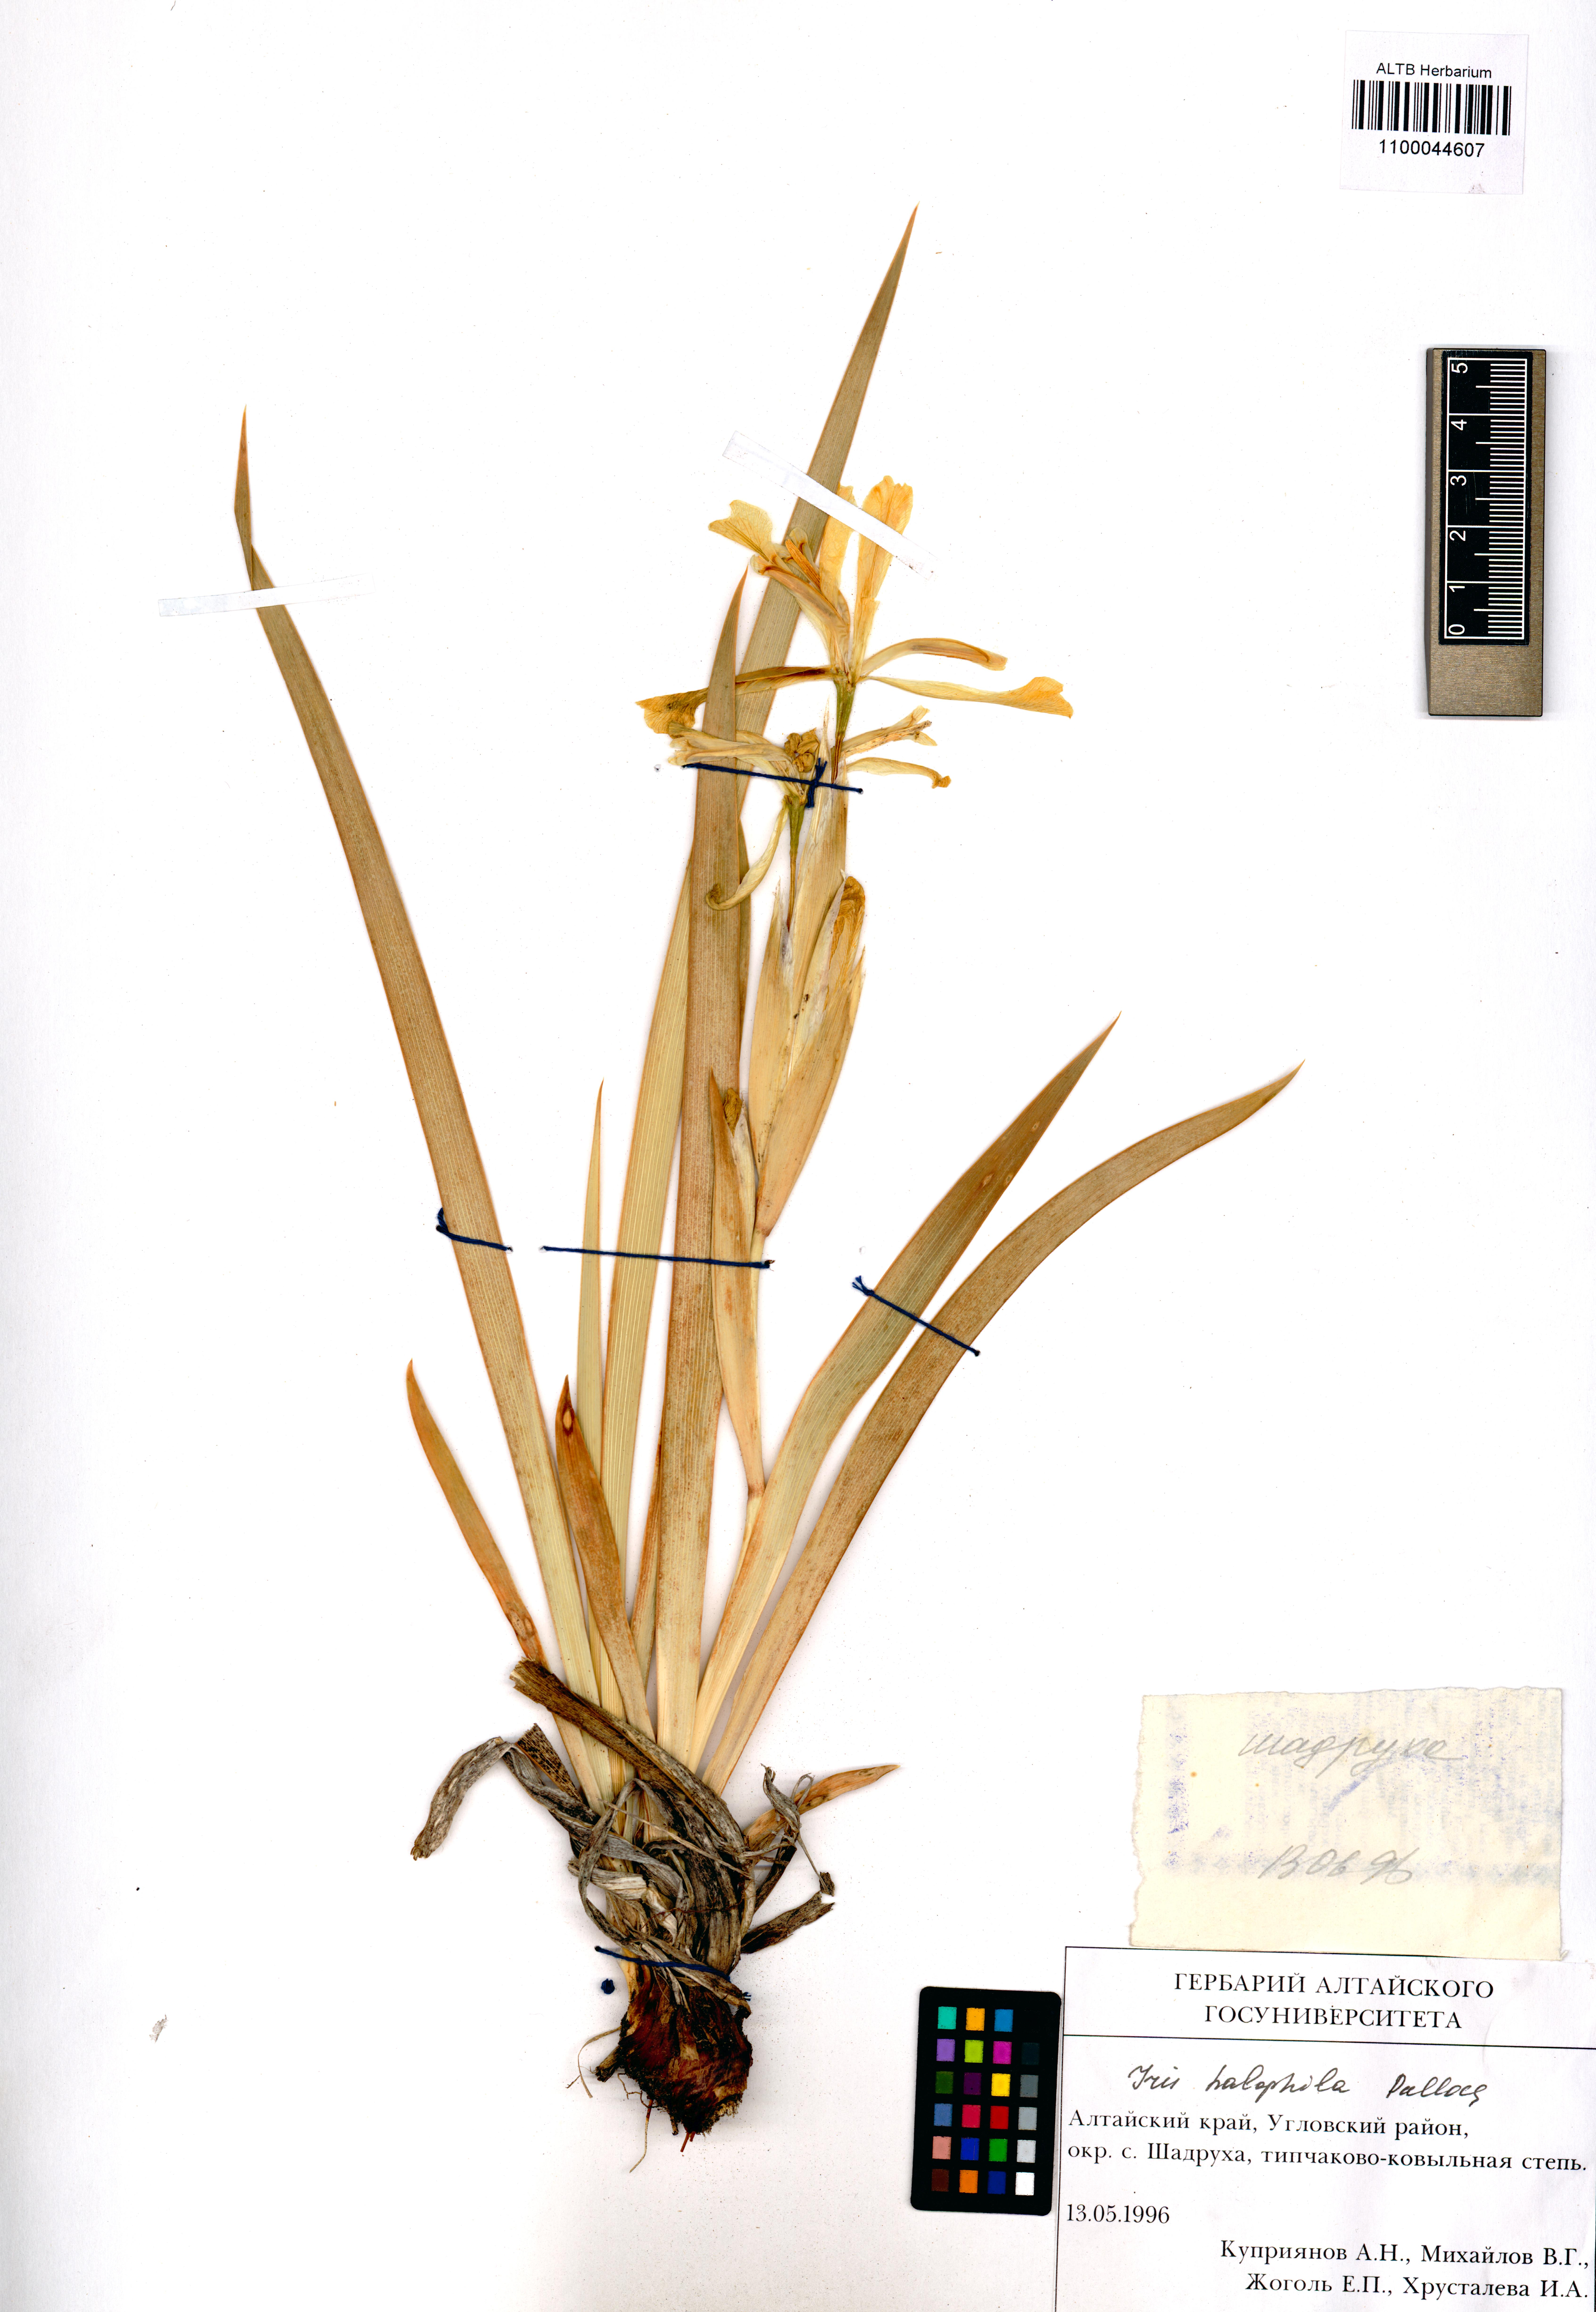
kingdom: Plantae
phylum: Tracheophyta
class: Liliopsida
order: Asparagales
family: Iridaceae
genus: Iris
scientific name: Iris halophila
